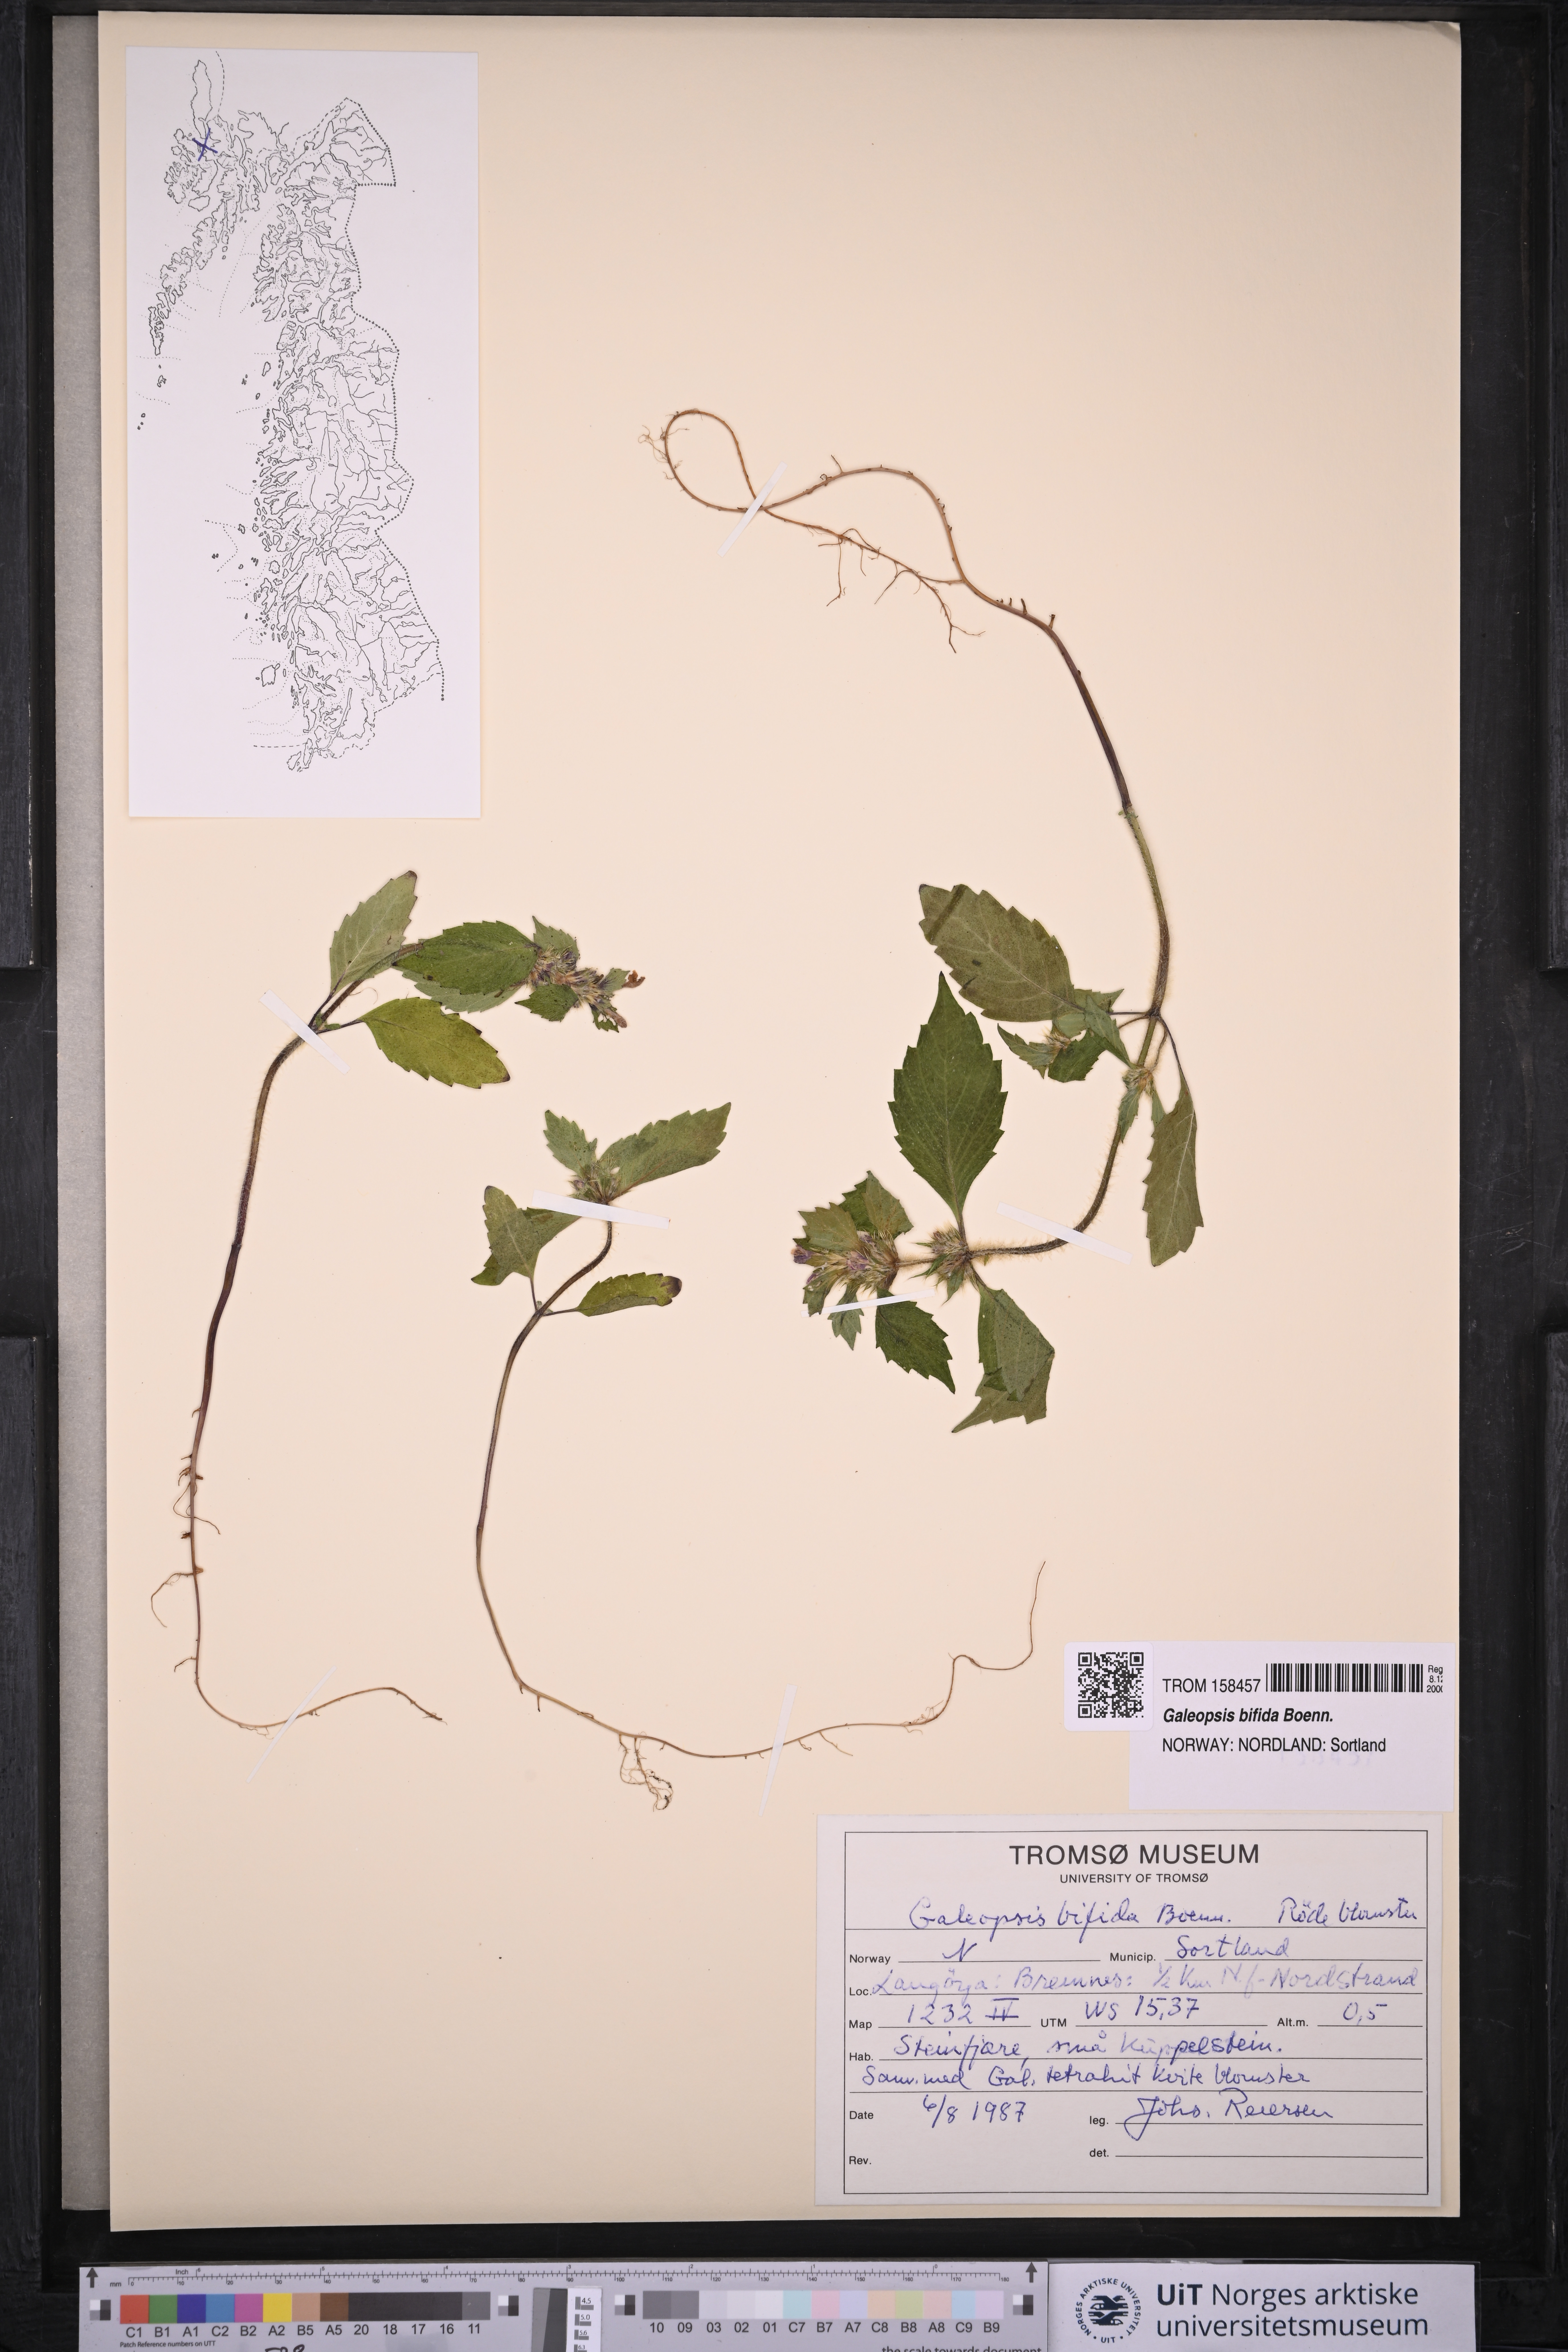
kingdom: Plantae
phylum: Tracheophyta
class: Magnoliopsida
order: Lamiales
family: Lamiaceae
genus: Galeopsis
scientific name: Galeopsis bifida
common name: Bifid hemp-nettle
